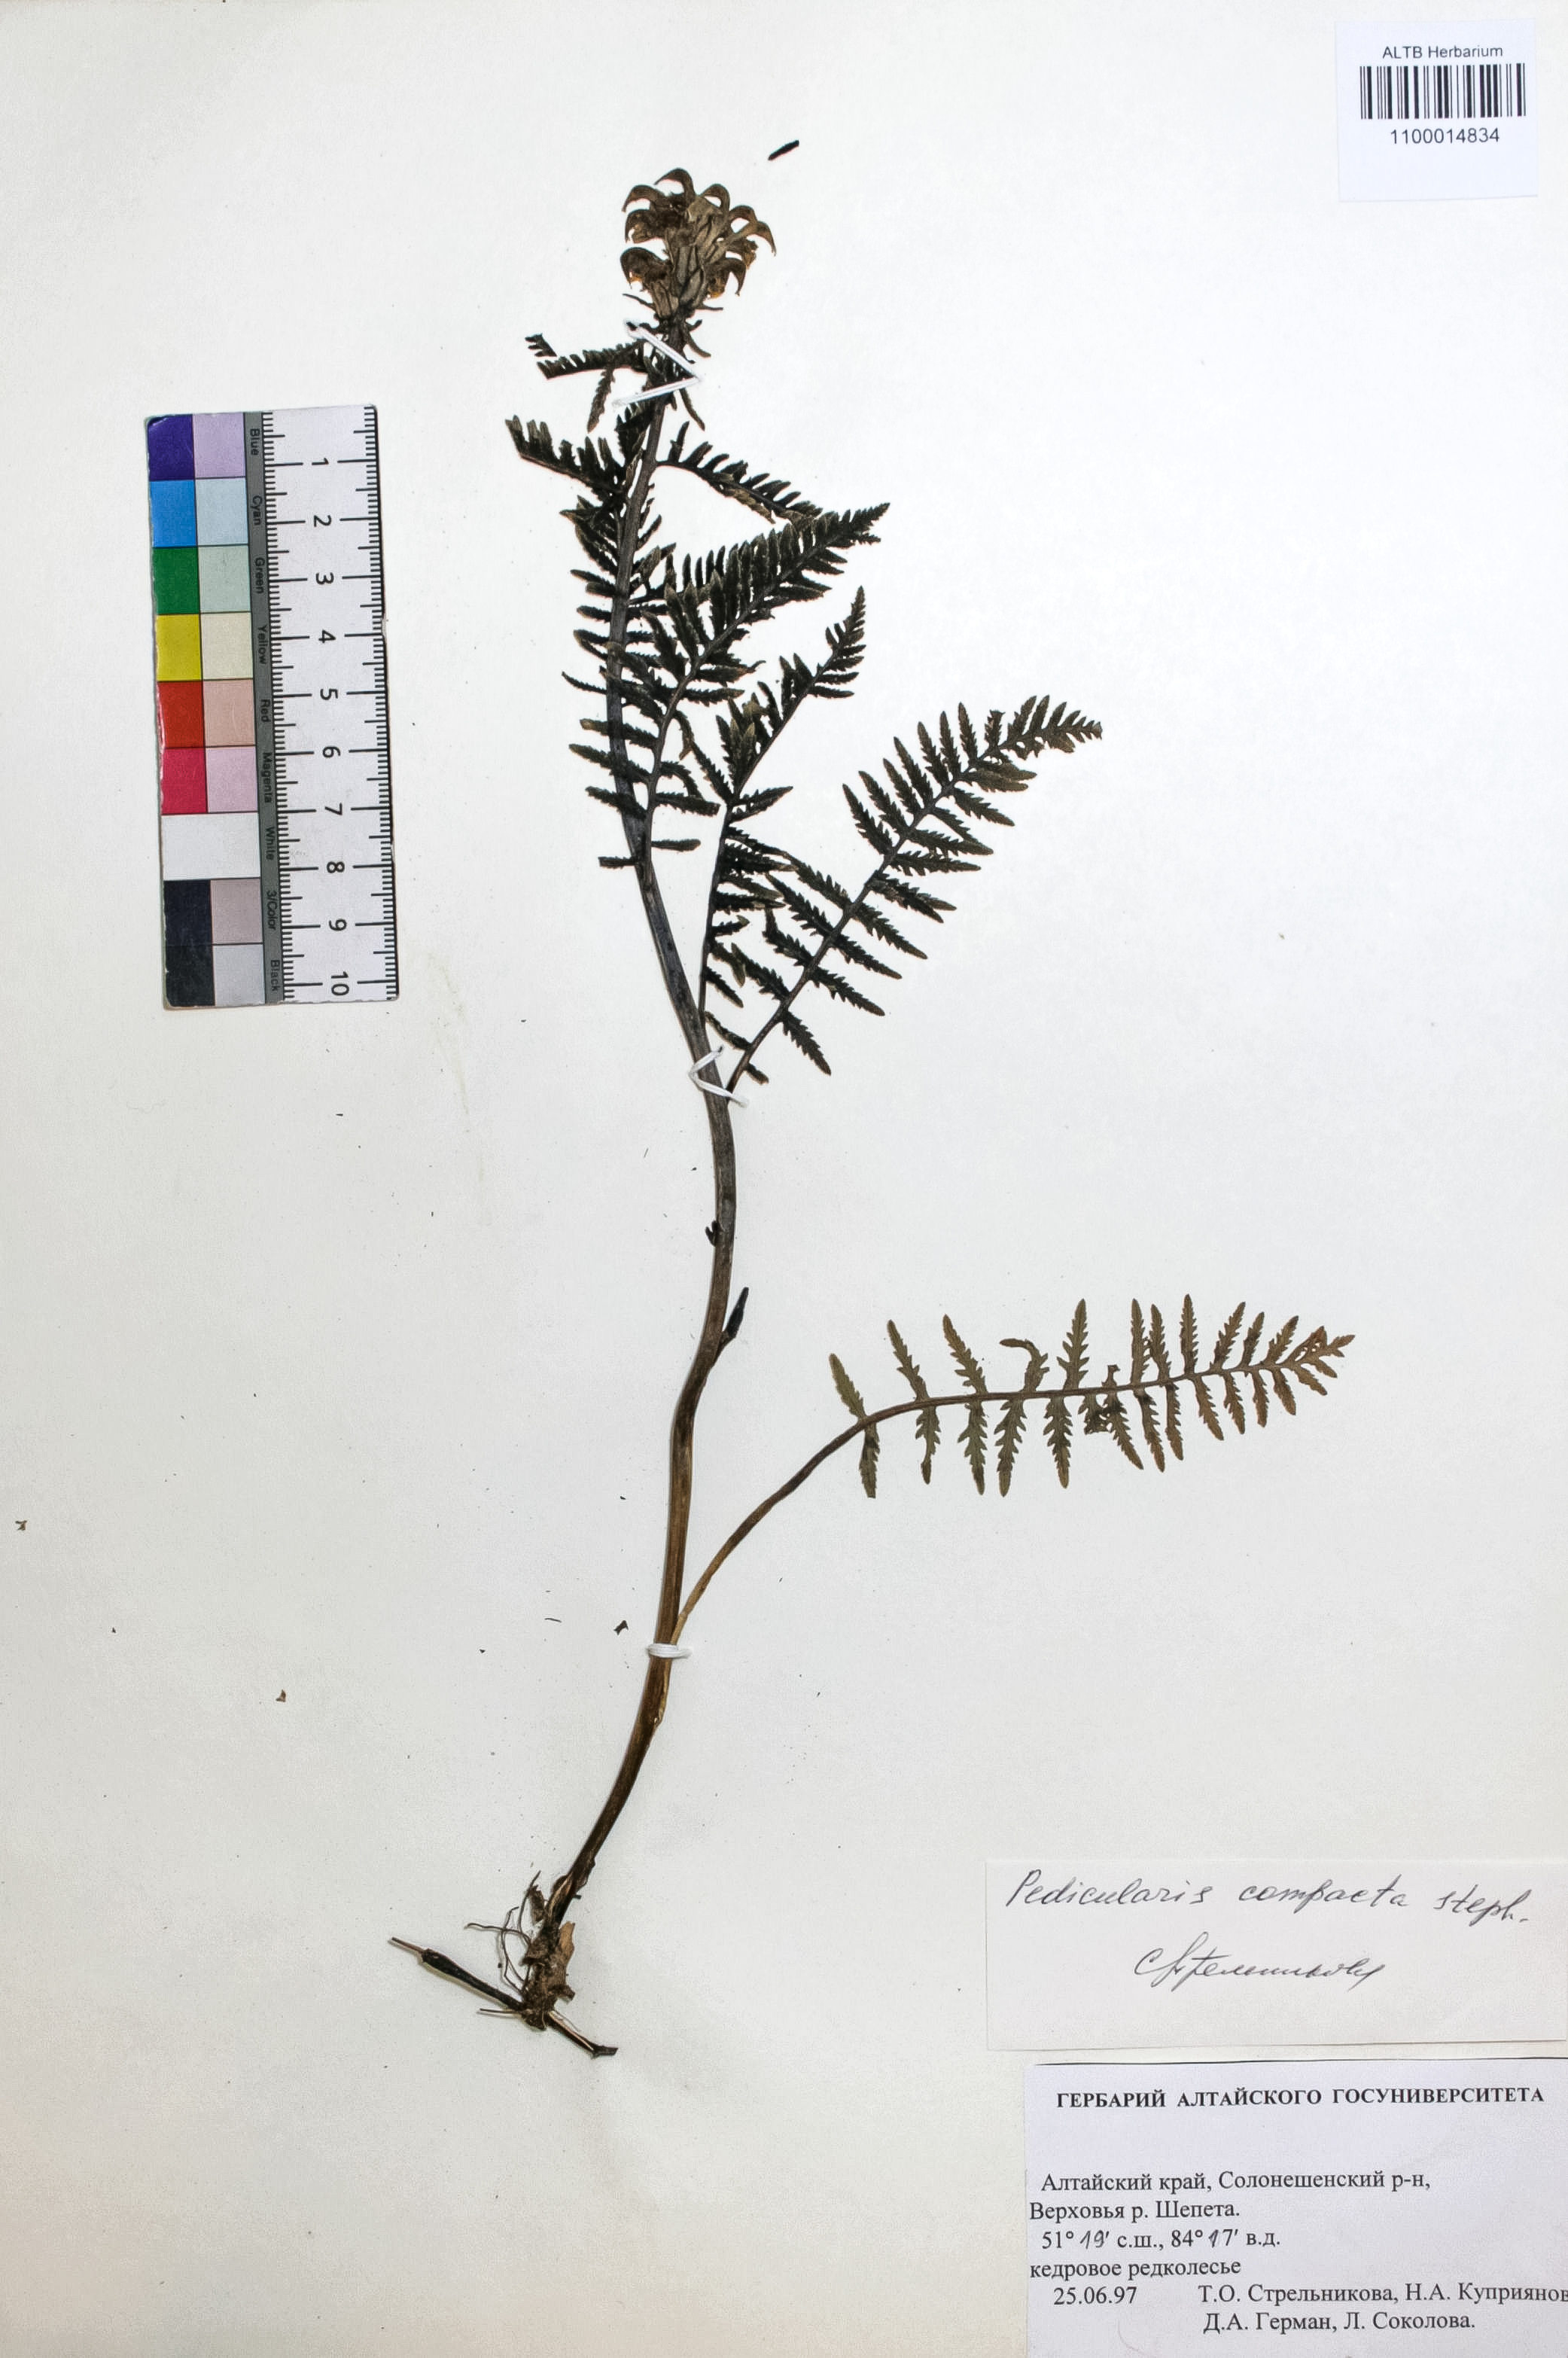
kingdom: Plantae
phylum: Tracheophyta
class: Magnoliopsida
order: Lamiales
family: Orobanchaceae
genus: Pedicularis
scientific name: Pedicularis compacta
